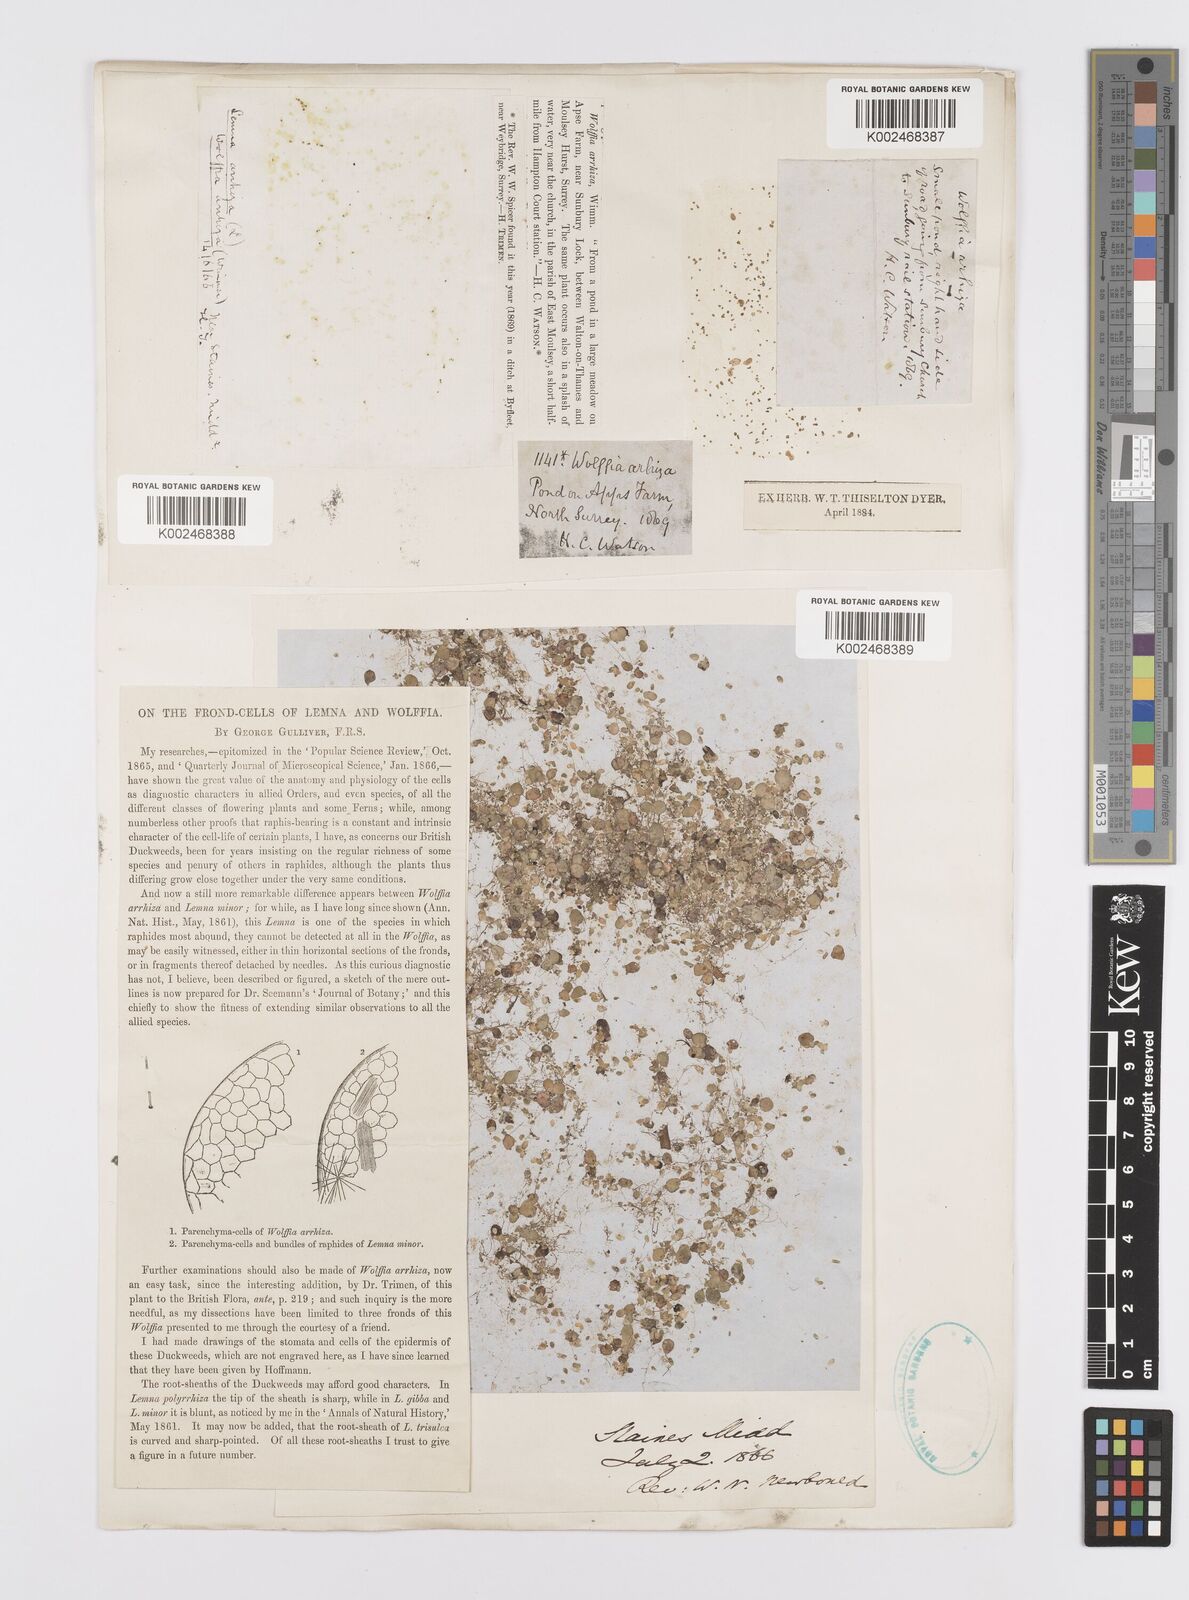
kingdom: Plantae
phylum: Tracheophyta
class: Liliopsida
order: Alismatales
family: Araceae
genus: Wolffia
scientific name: Wolffia arrhiza
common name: Rootless duckweed
